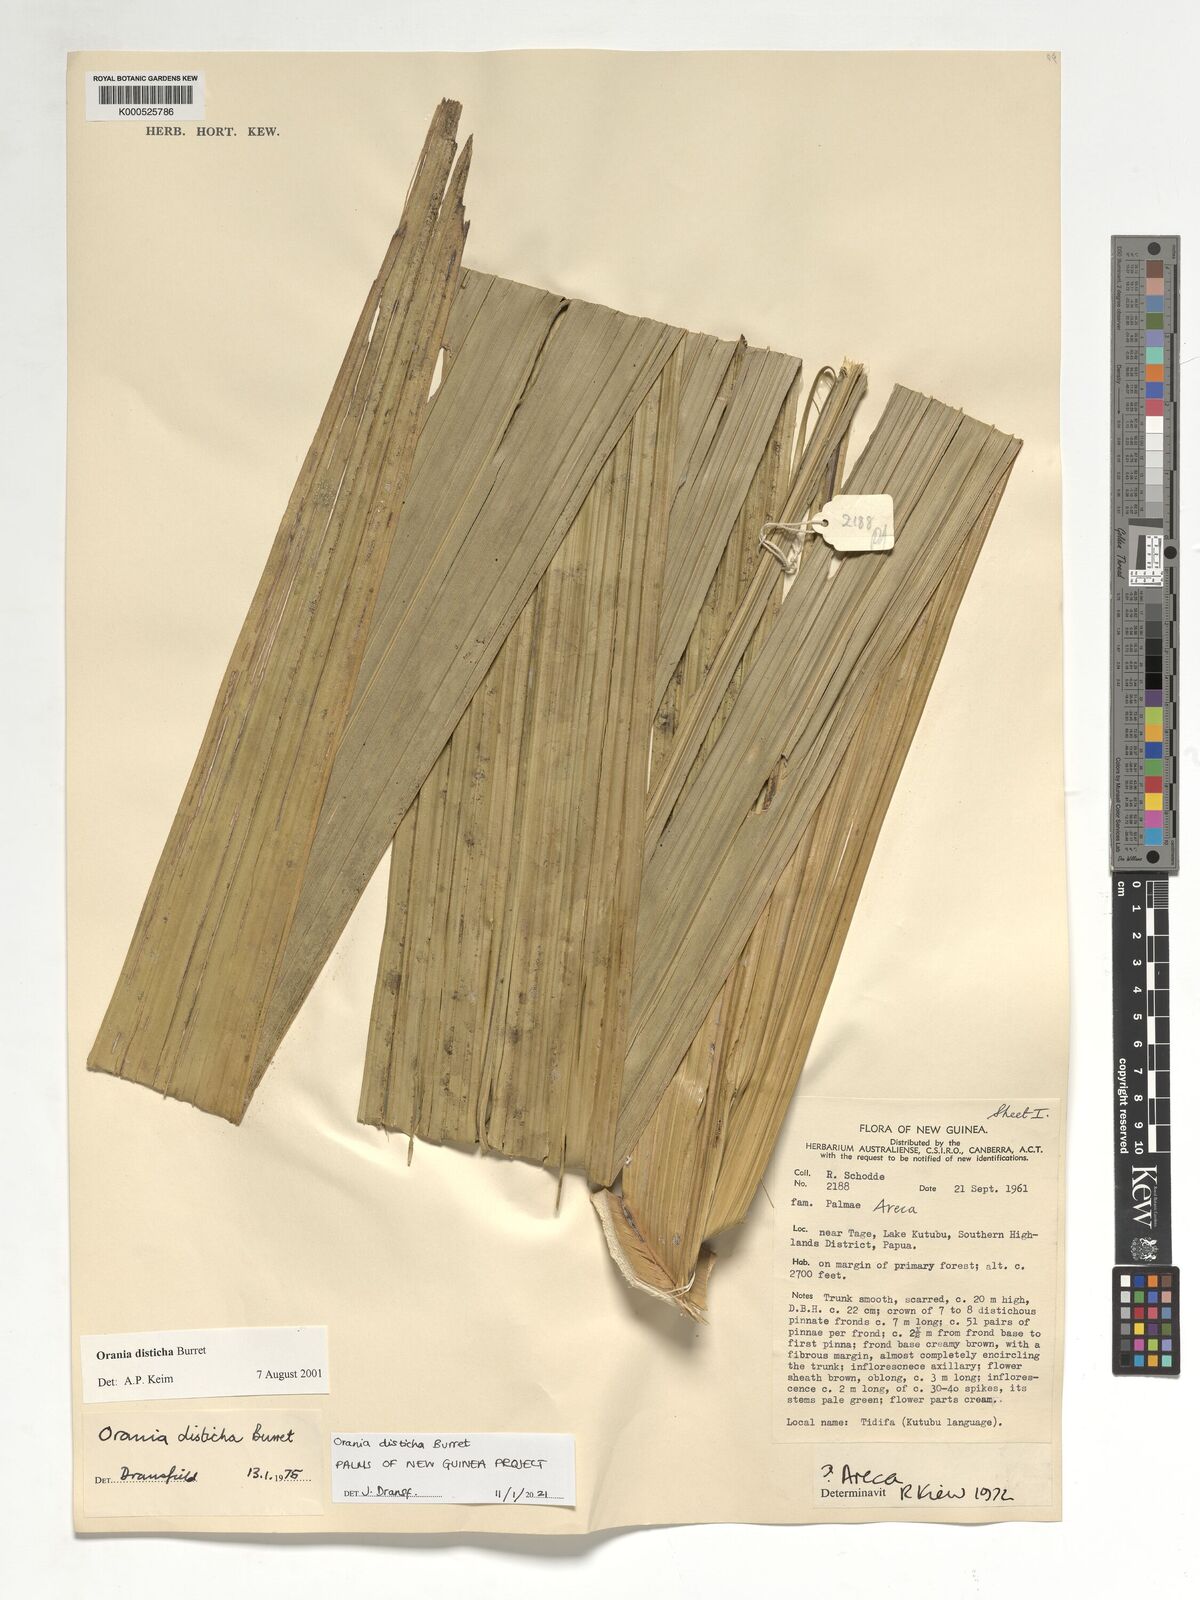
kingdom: Plantae
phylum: Tracheophyta
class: Liliopsida
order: Arecales
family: Arecaceae
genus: Orania
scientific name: Orania disticha
